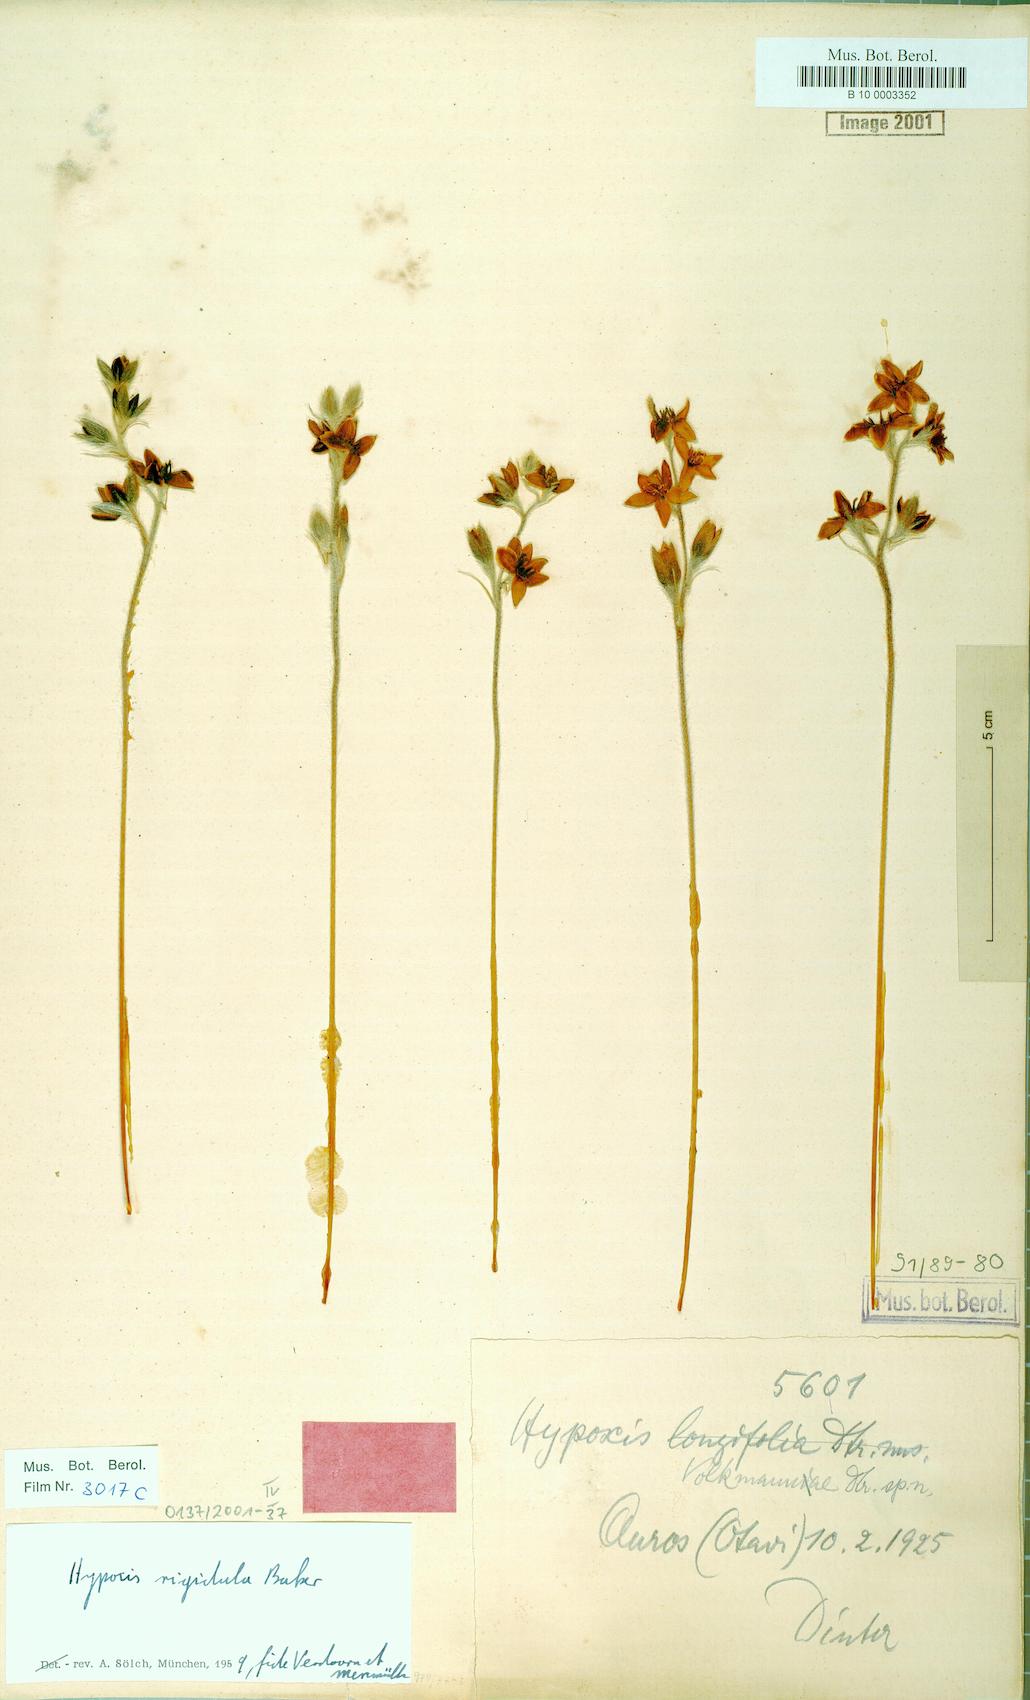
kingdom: Plantae
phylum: Tracheophyta
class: Liliopsida
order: Asparagales
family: Hypoxidaceae
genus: Hypoxis
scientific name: Hypoxis rigidula
